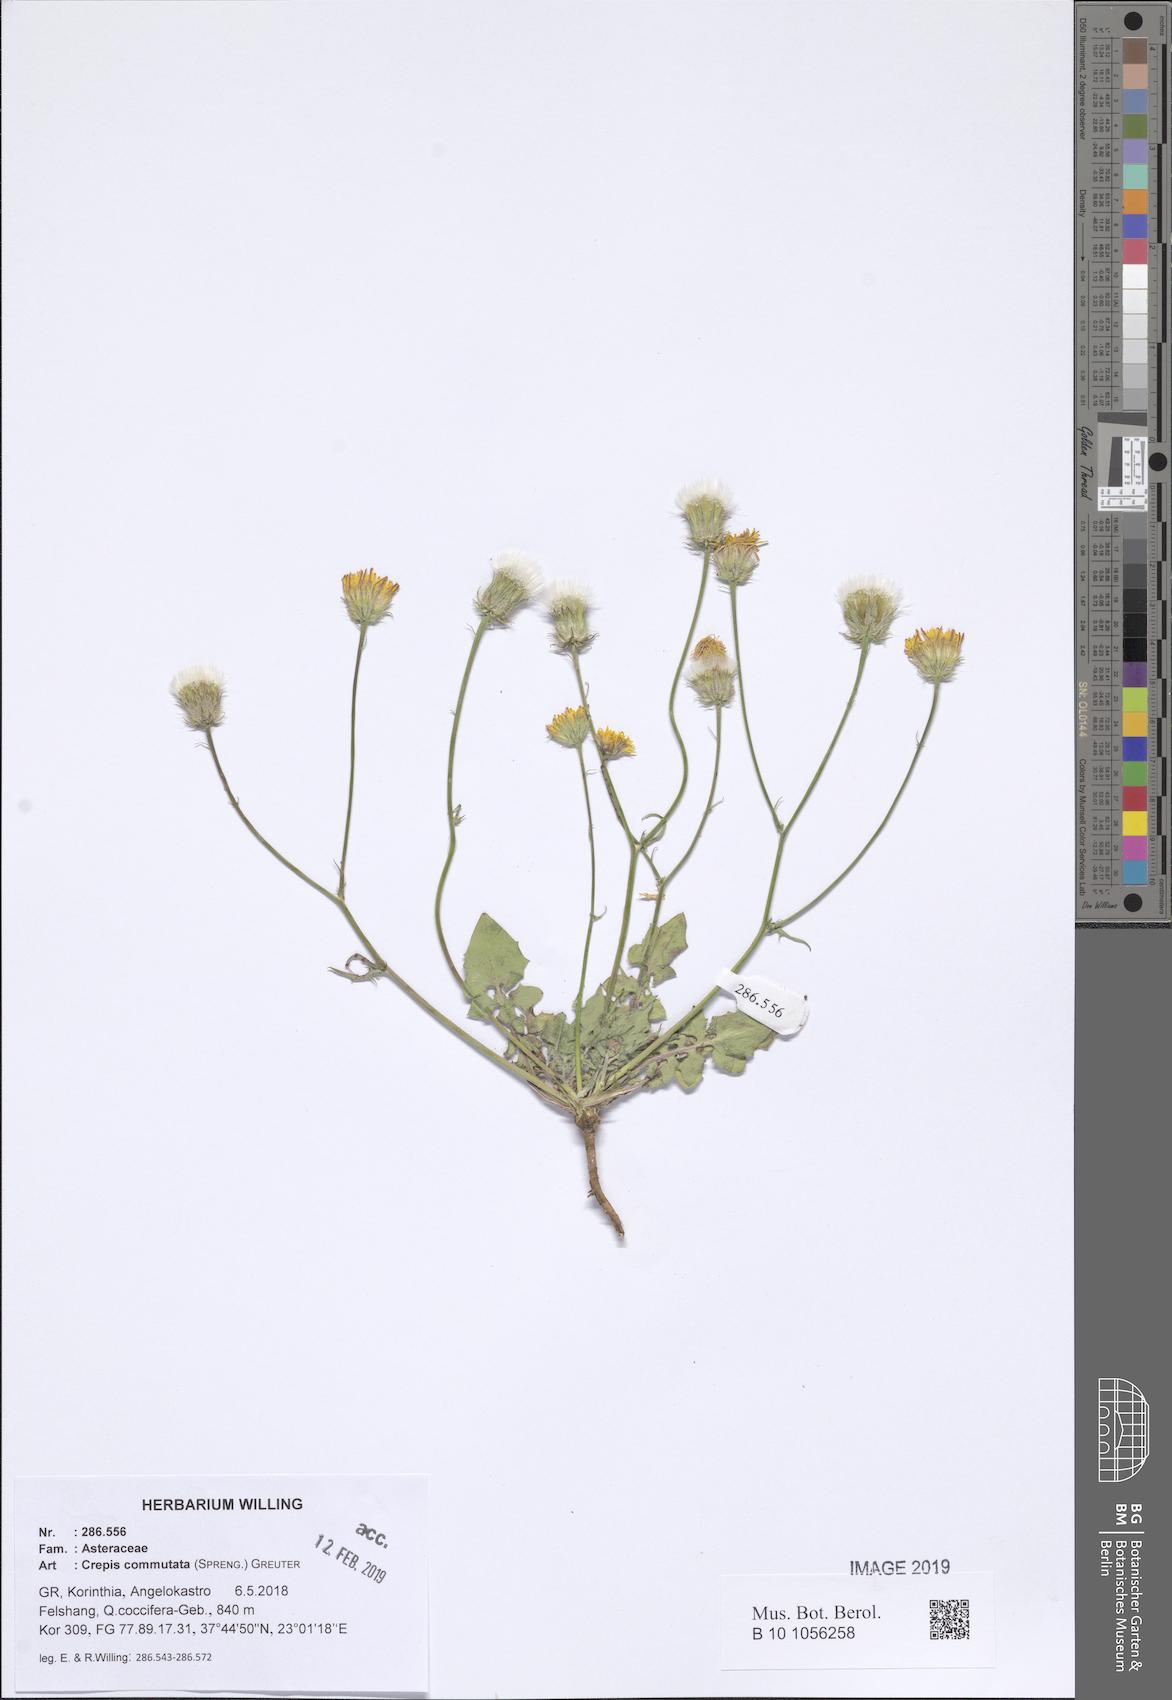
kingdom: Plantae
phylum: Tracheophyta
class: Magnoliopsida
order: Asterales
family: Asteraceae
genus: Crepis
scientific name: Crepis commutata
